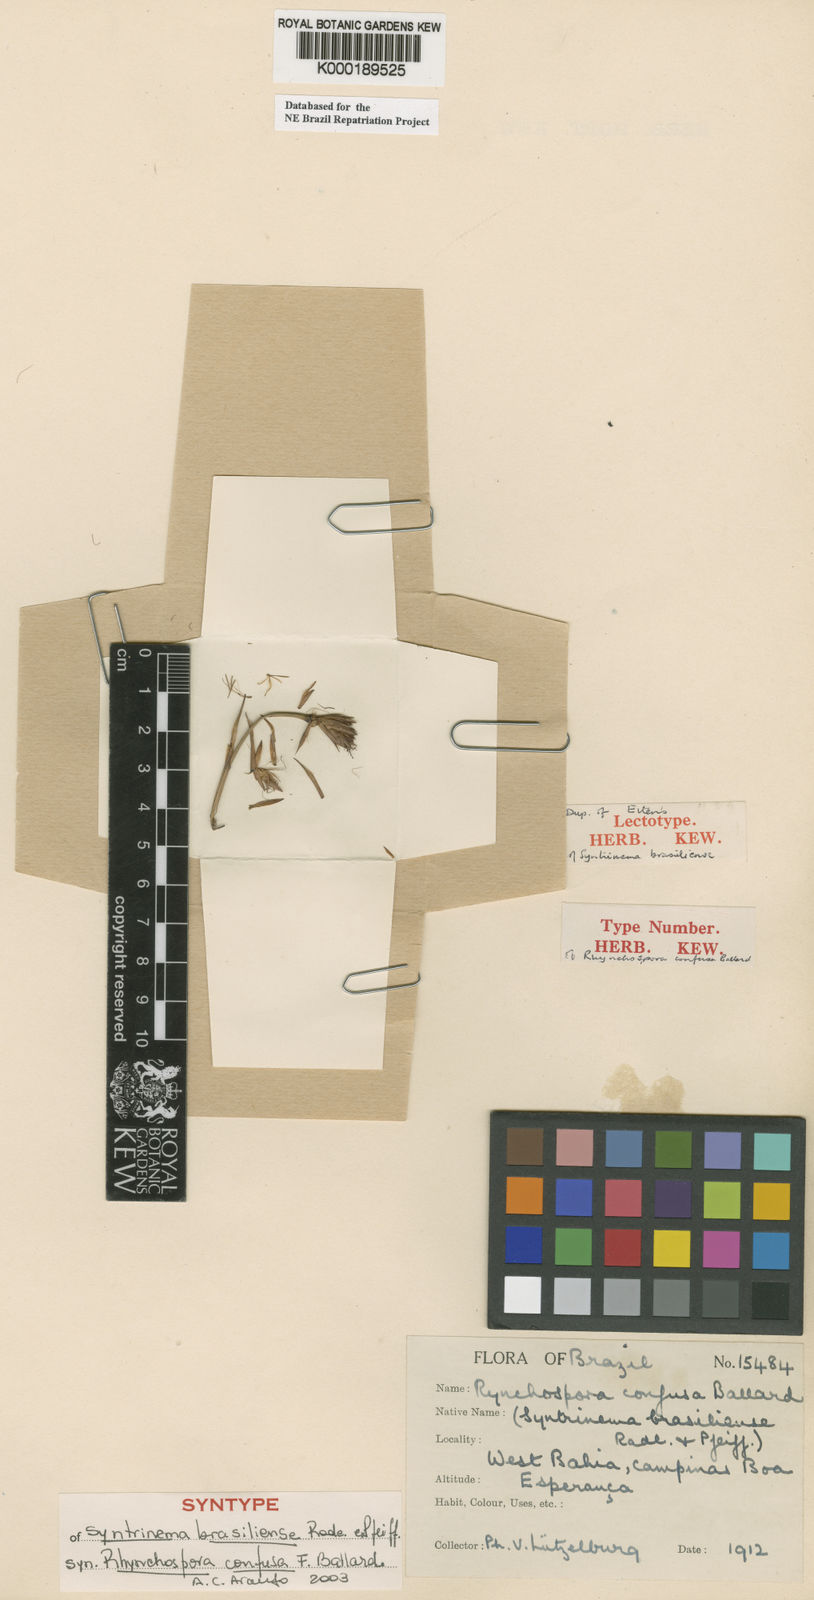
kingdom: Plantae
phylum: Tracheophyta
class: Liliopsida
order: Poales
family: Cyperaceae
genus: Rhynchospora
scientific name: Rhynchospora confusa
